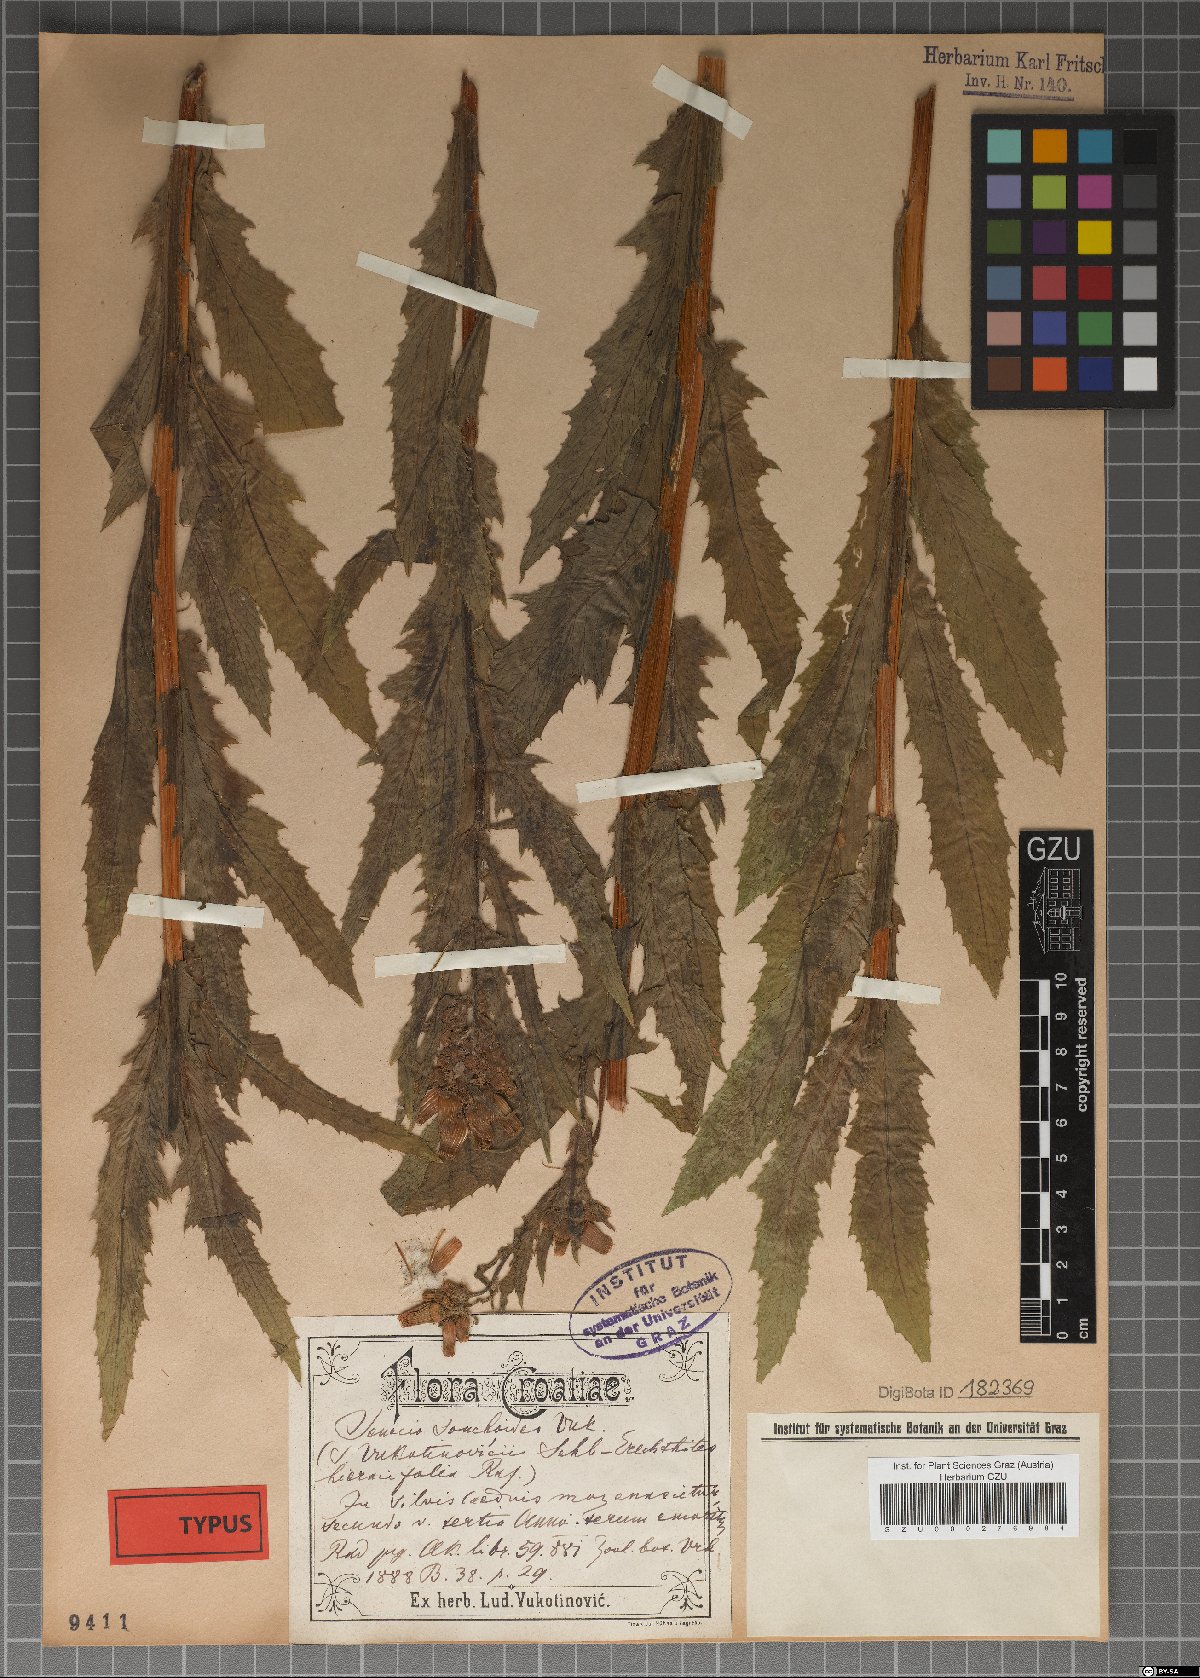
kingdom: Plantae
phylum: Tracheophyta
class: Magnoliopsida
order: Asterales
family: Asteraceae
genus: Senecio
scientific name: Senecio
